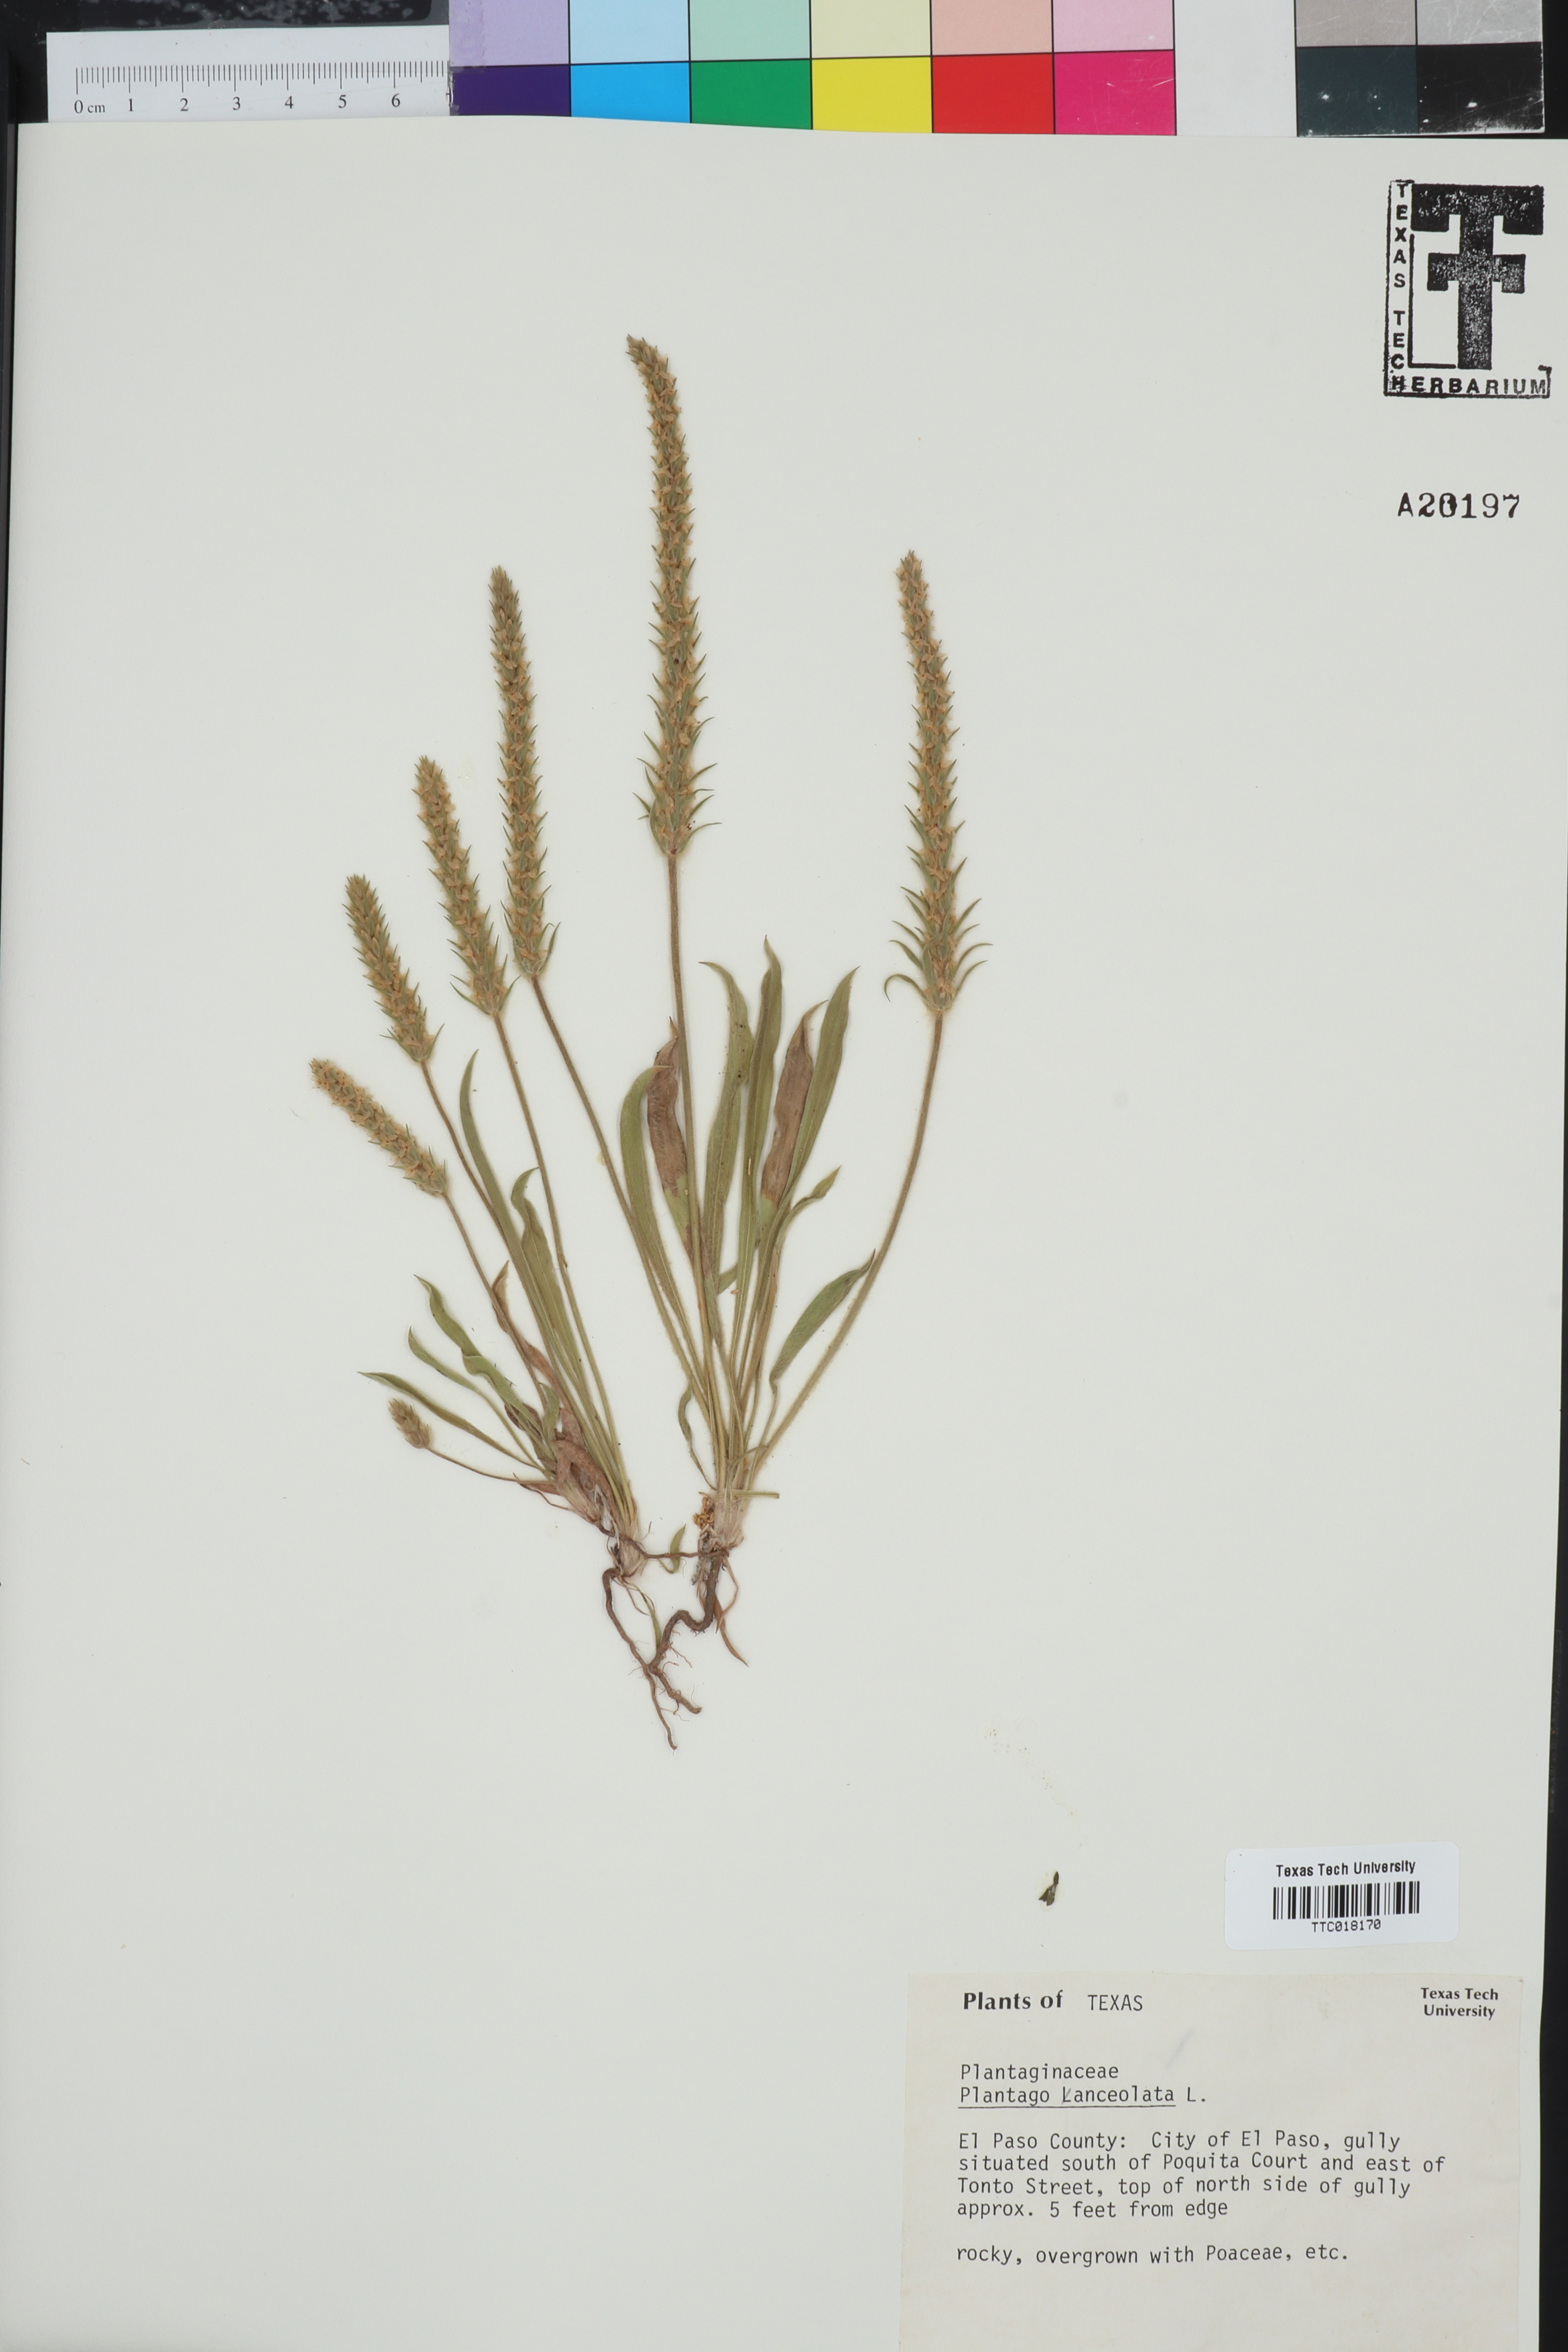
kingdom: Plantae
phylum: Tracheophyta
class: Magnoliopsida
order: Lamiales
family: Plantaginaceae
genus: Plantago
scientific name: Plantago lanceolata
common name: Ribwort plantain
